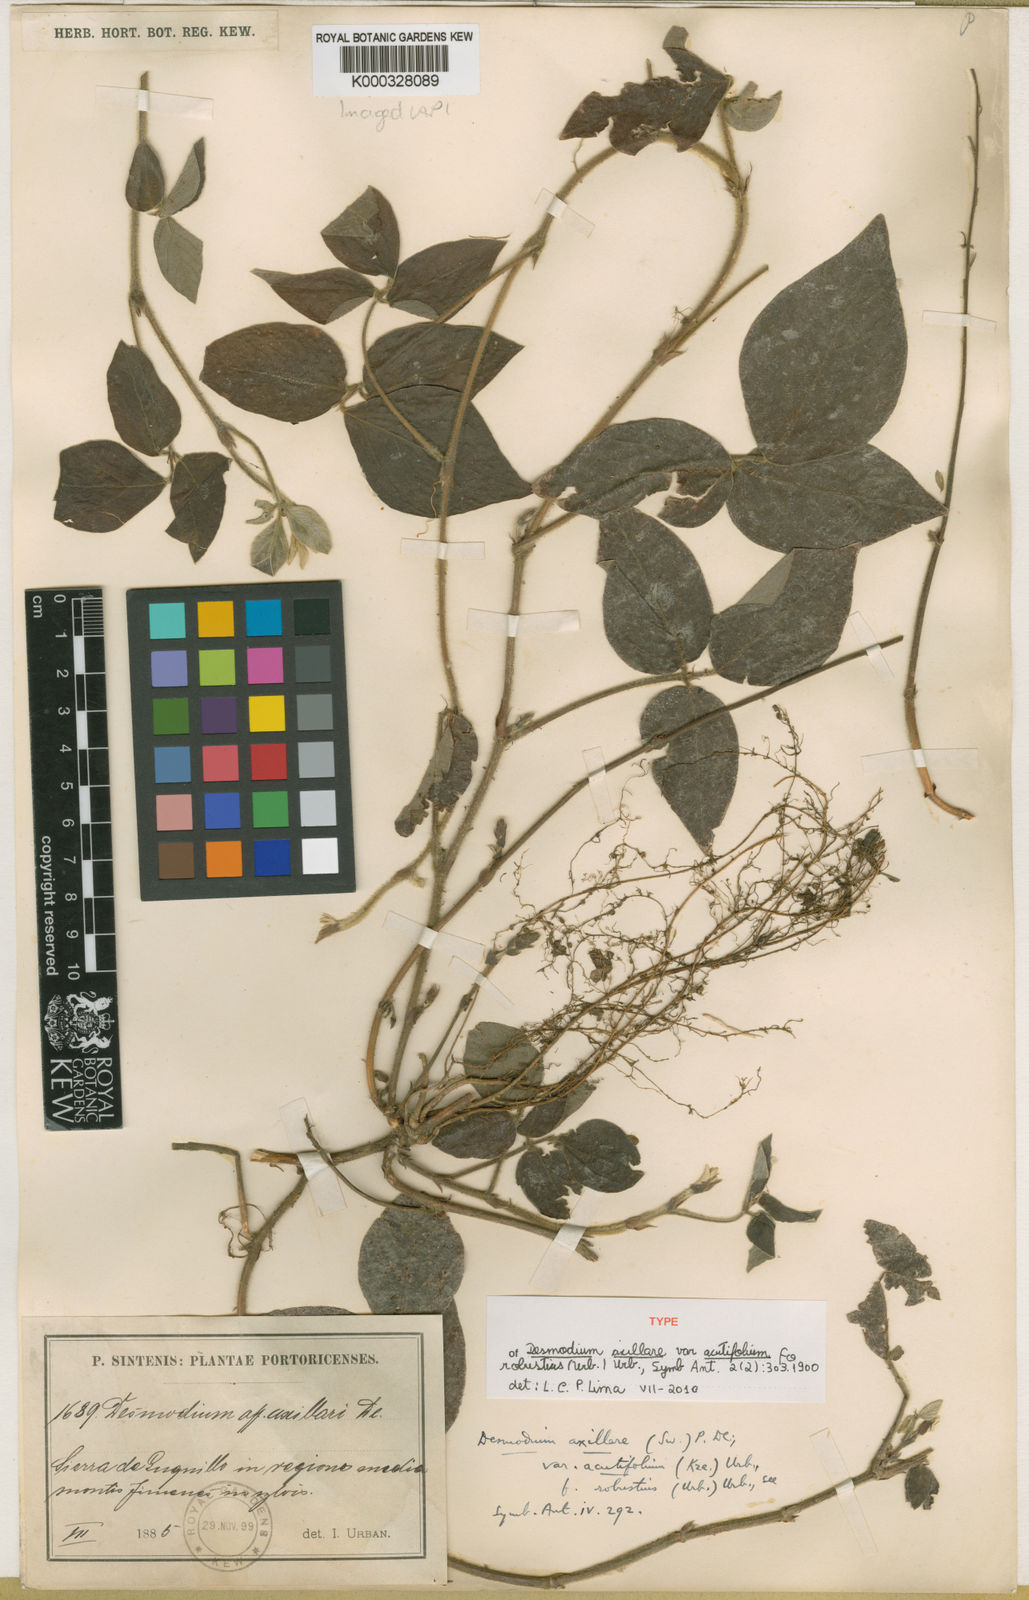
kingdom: Plantae
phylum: Tracheophyta
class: Magnoliopsida
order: Fabales
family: Fabaceae
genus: Desmodium
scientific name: Desmodium axillare
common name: Wire with
